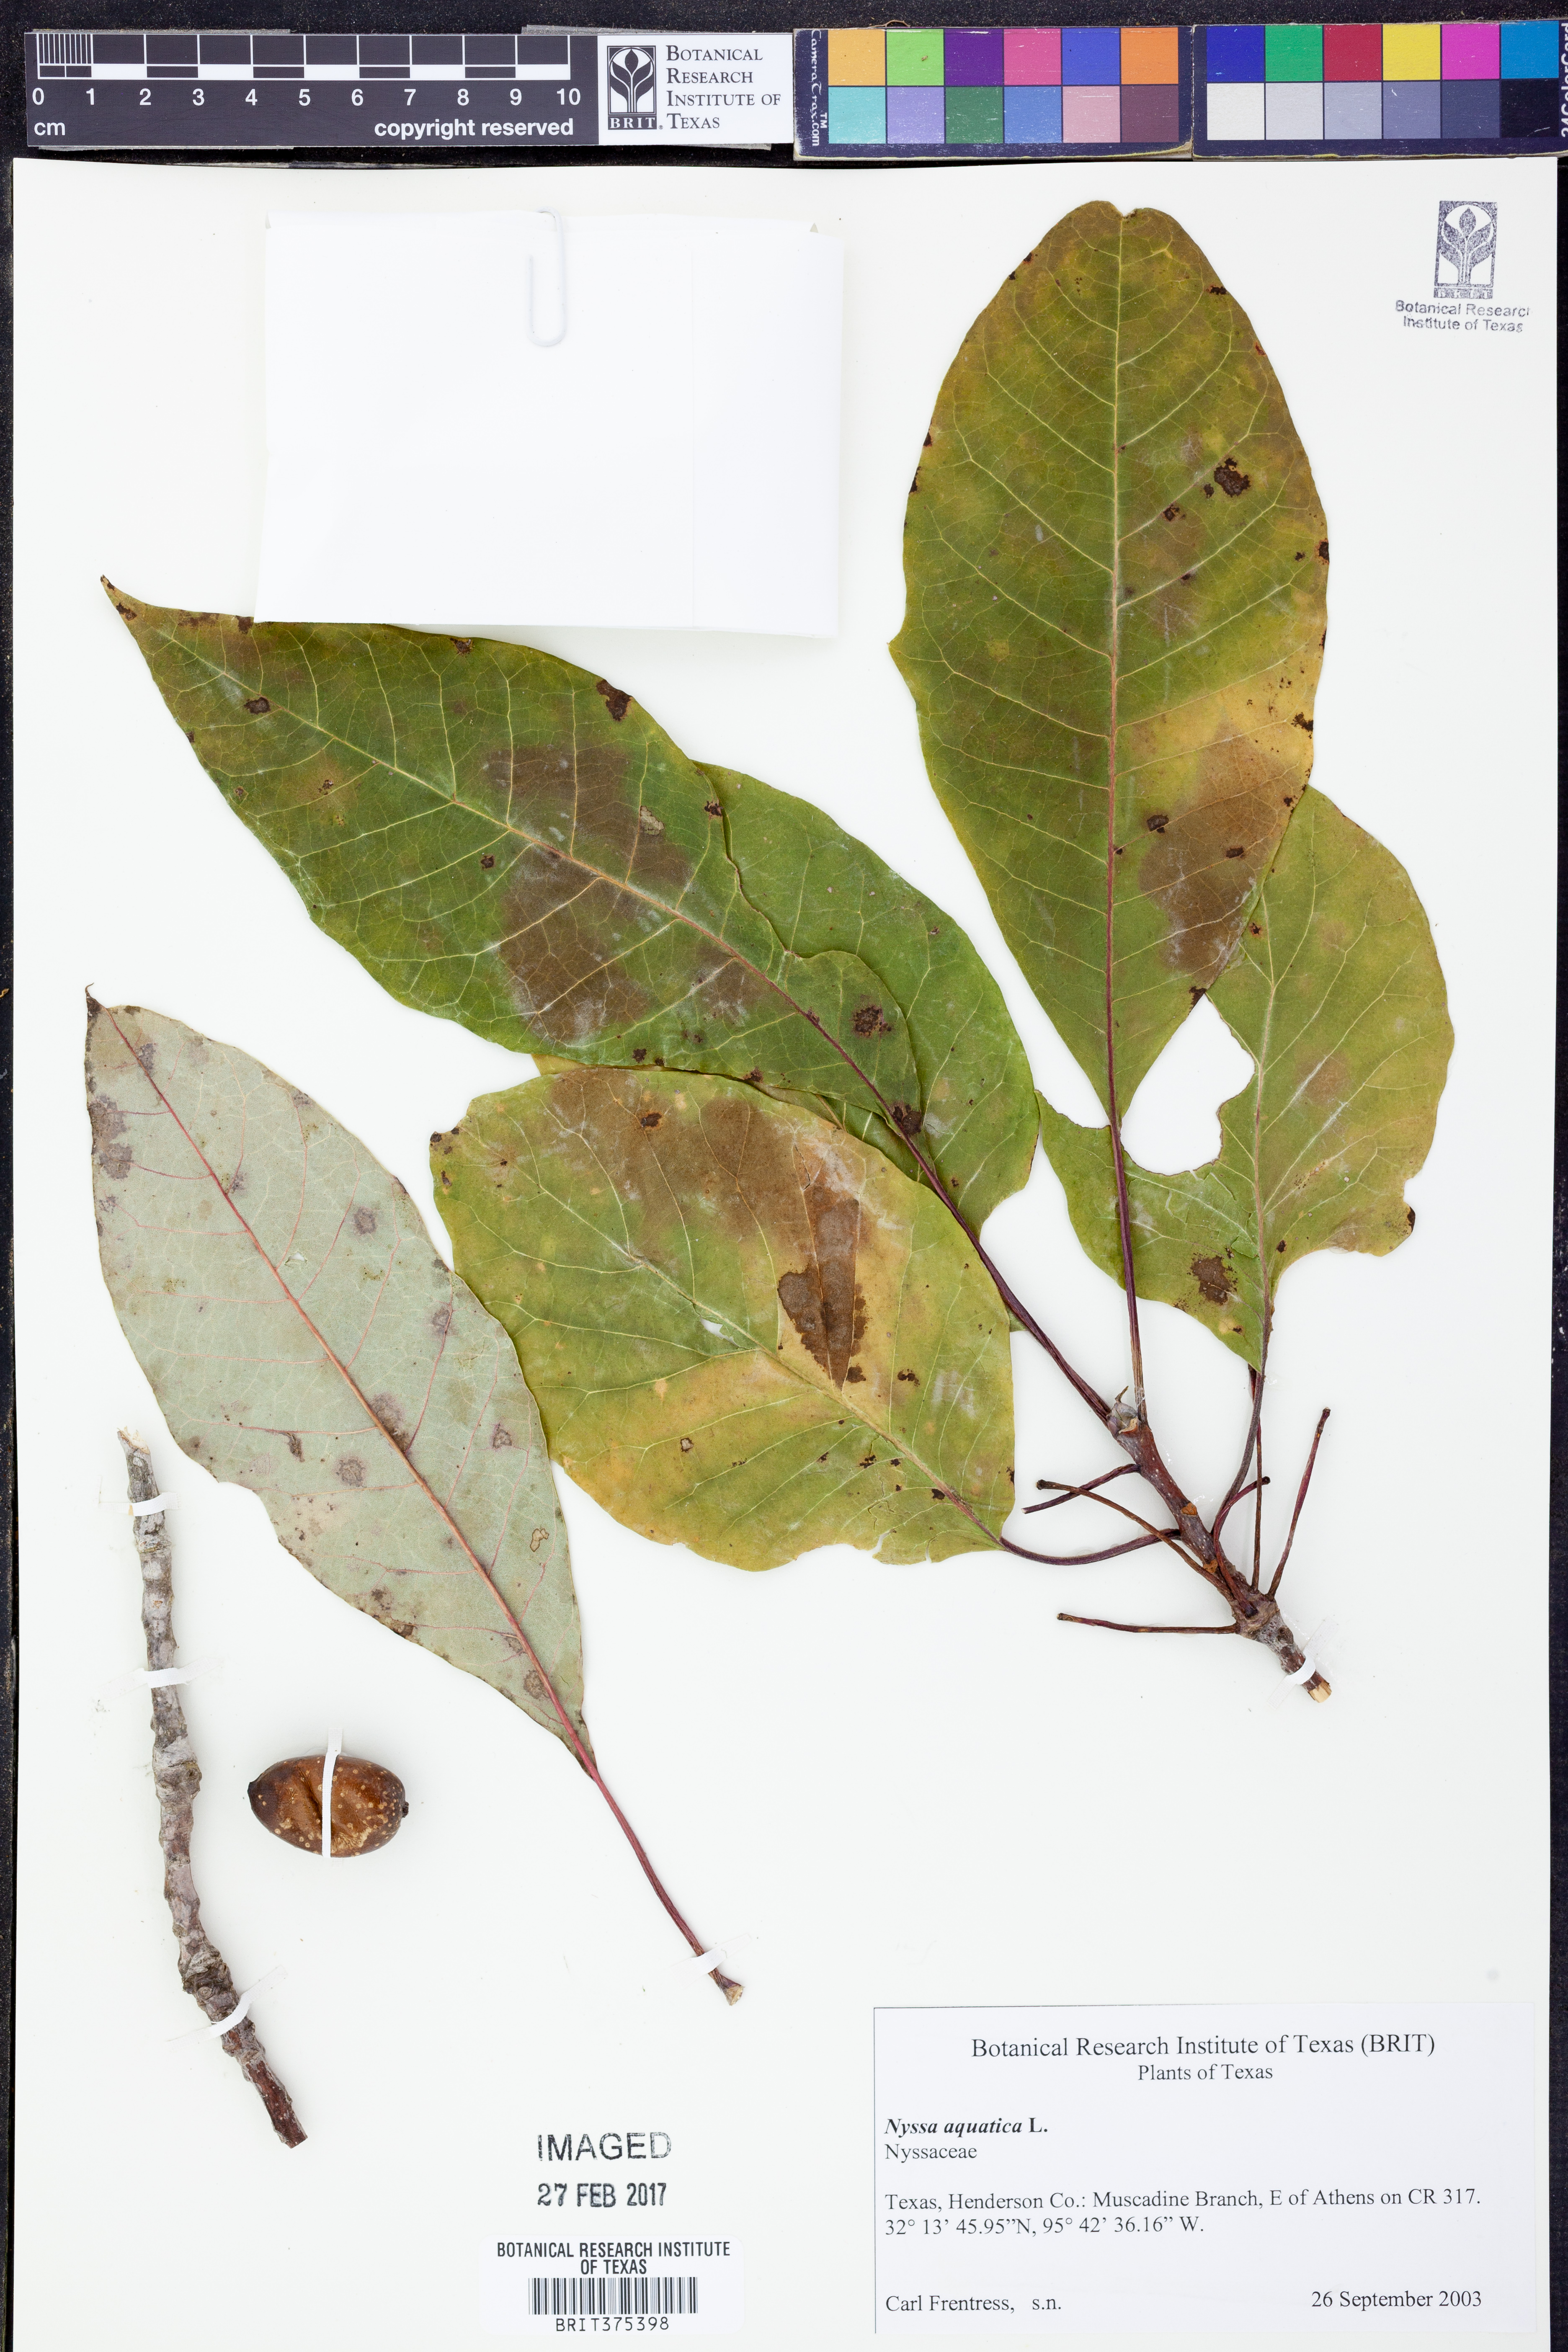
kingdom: Plantae
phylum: Tracheophyta
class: Magnoliopsida
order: Cornales
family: Nyssaceae
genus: Nyssa
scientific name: Nyssa aquatica
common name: Swamp tupelo
